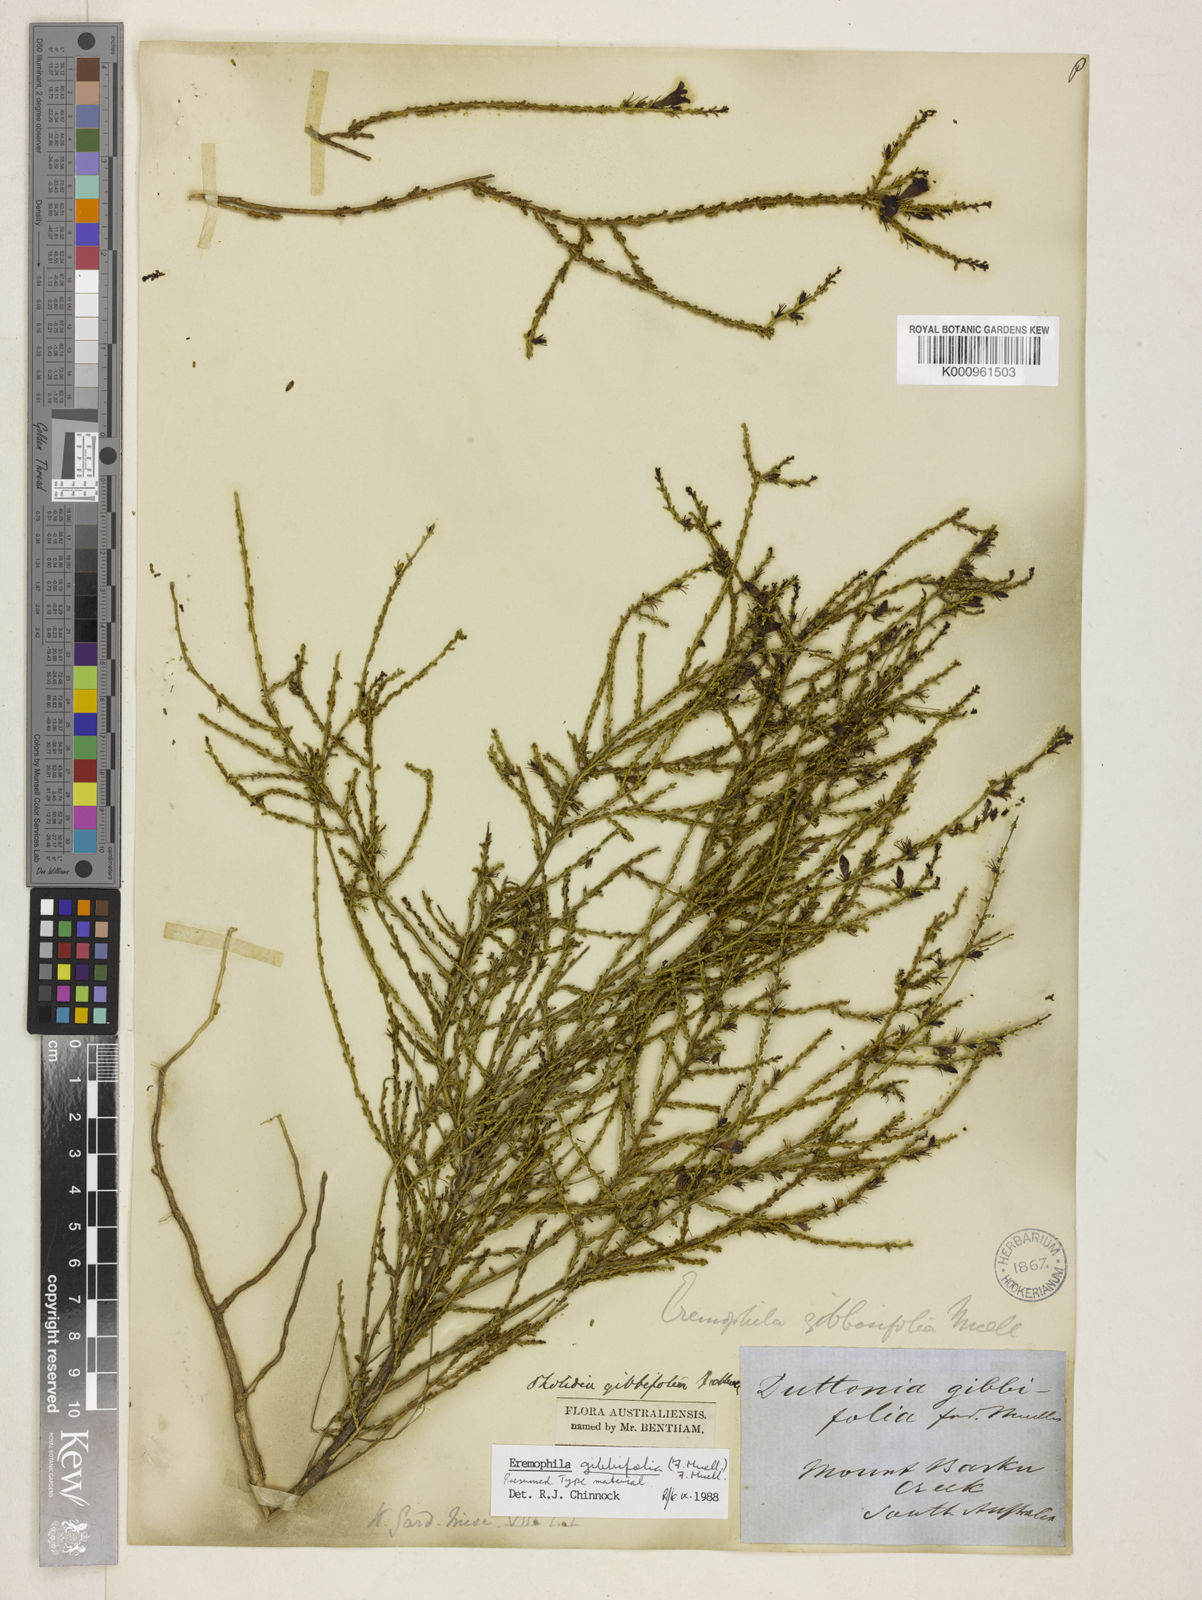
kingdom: Plantae
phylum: Tracheophyta
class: Magnoliopsida
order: Lamiales
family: Scrophulariaceae
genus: Eremophila
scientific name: Eremophila gibbifolia
